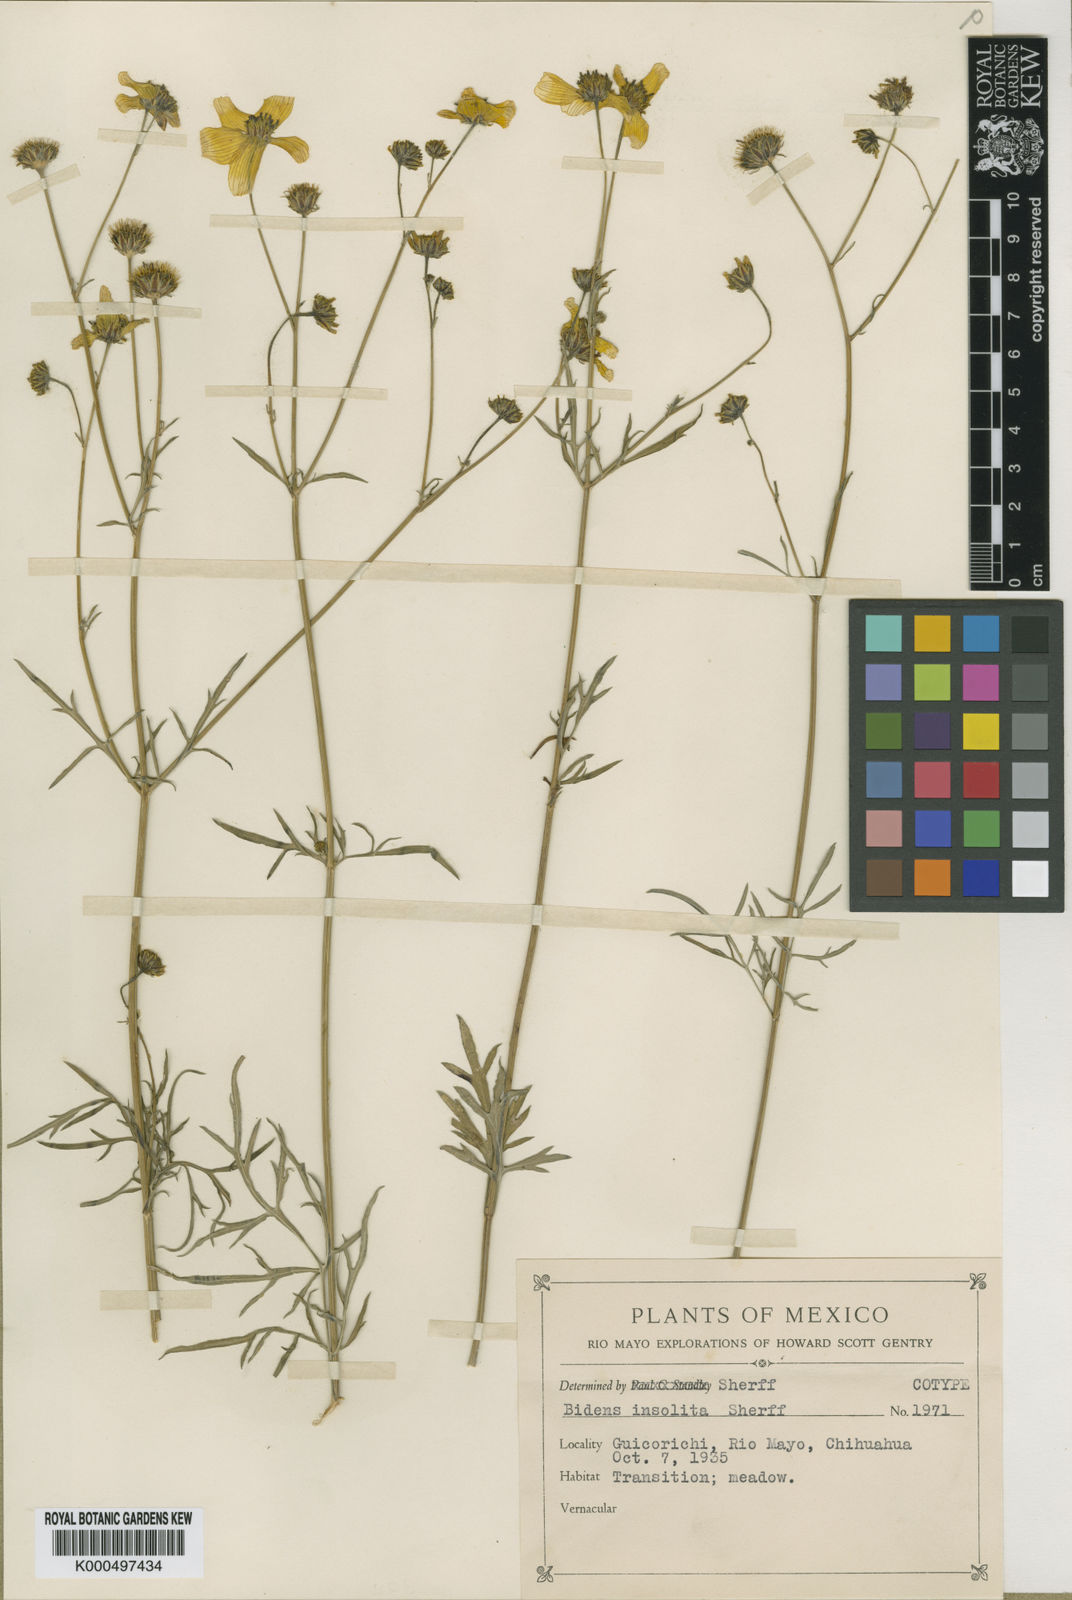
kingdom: Plantae
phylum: Tracheophyta
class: Magnoliopsida
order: Asterales
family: Asteraceae
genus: Bidens
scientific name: Bidens insolita
